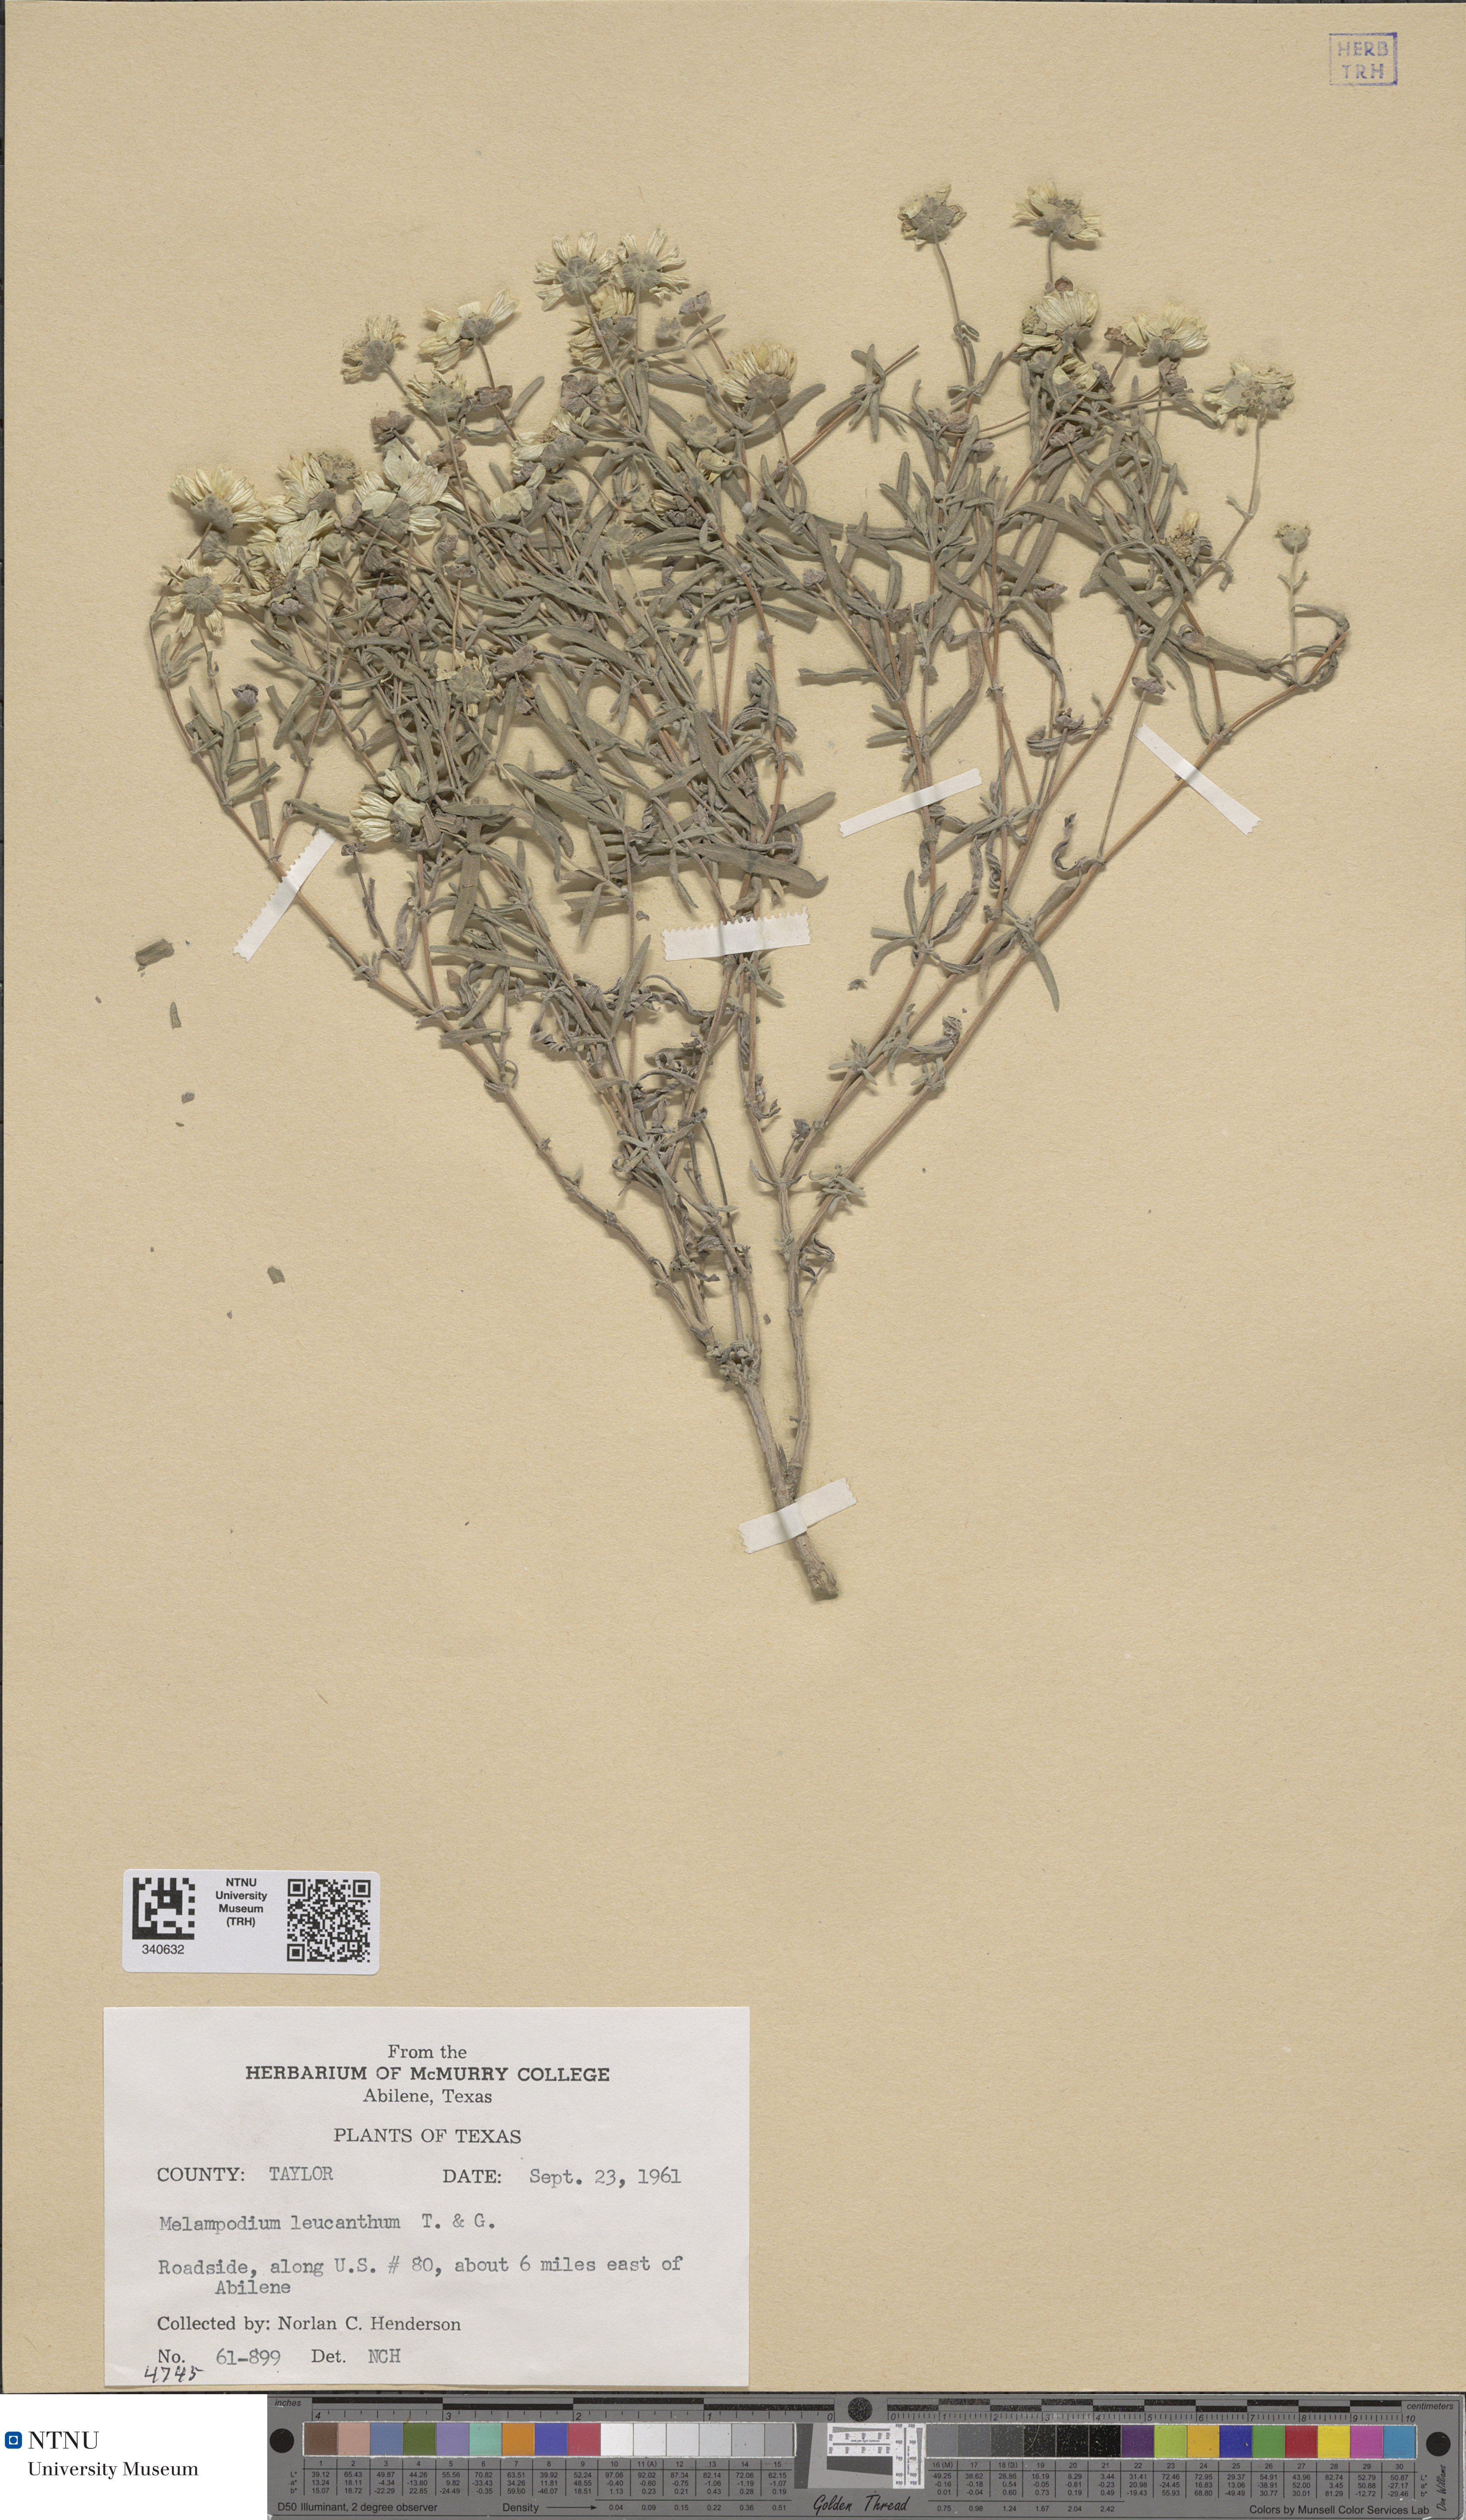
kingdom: Plantae
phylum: Tracheophyta
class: Magnoliopsida
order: Asterales
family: Asteraceae
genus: Melampodium
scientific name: Melampodium leucanthum
